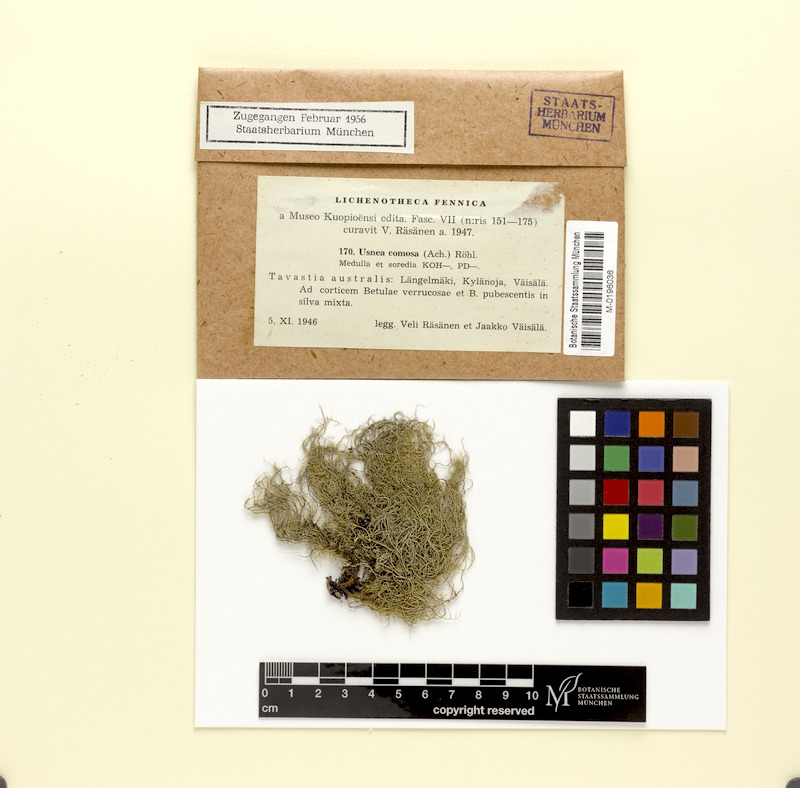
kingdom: Fungi
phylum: Ascomycota
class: Lecanoromycetes
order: Lecanorales
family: Parmeliaceae
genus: Usnea
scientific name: Usnea subfloridana
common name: Boreal beard lichen
